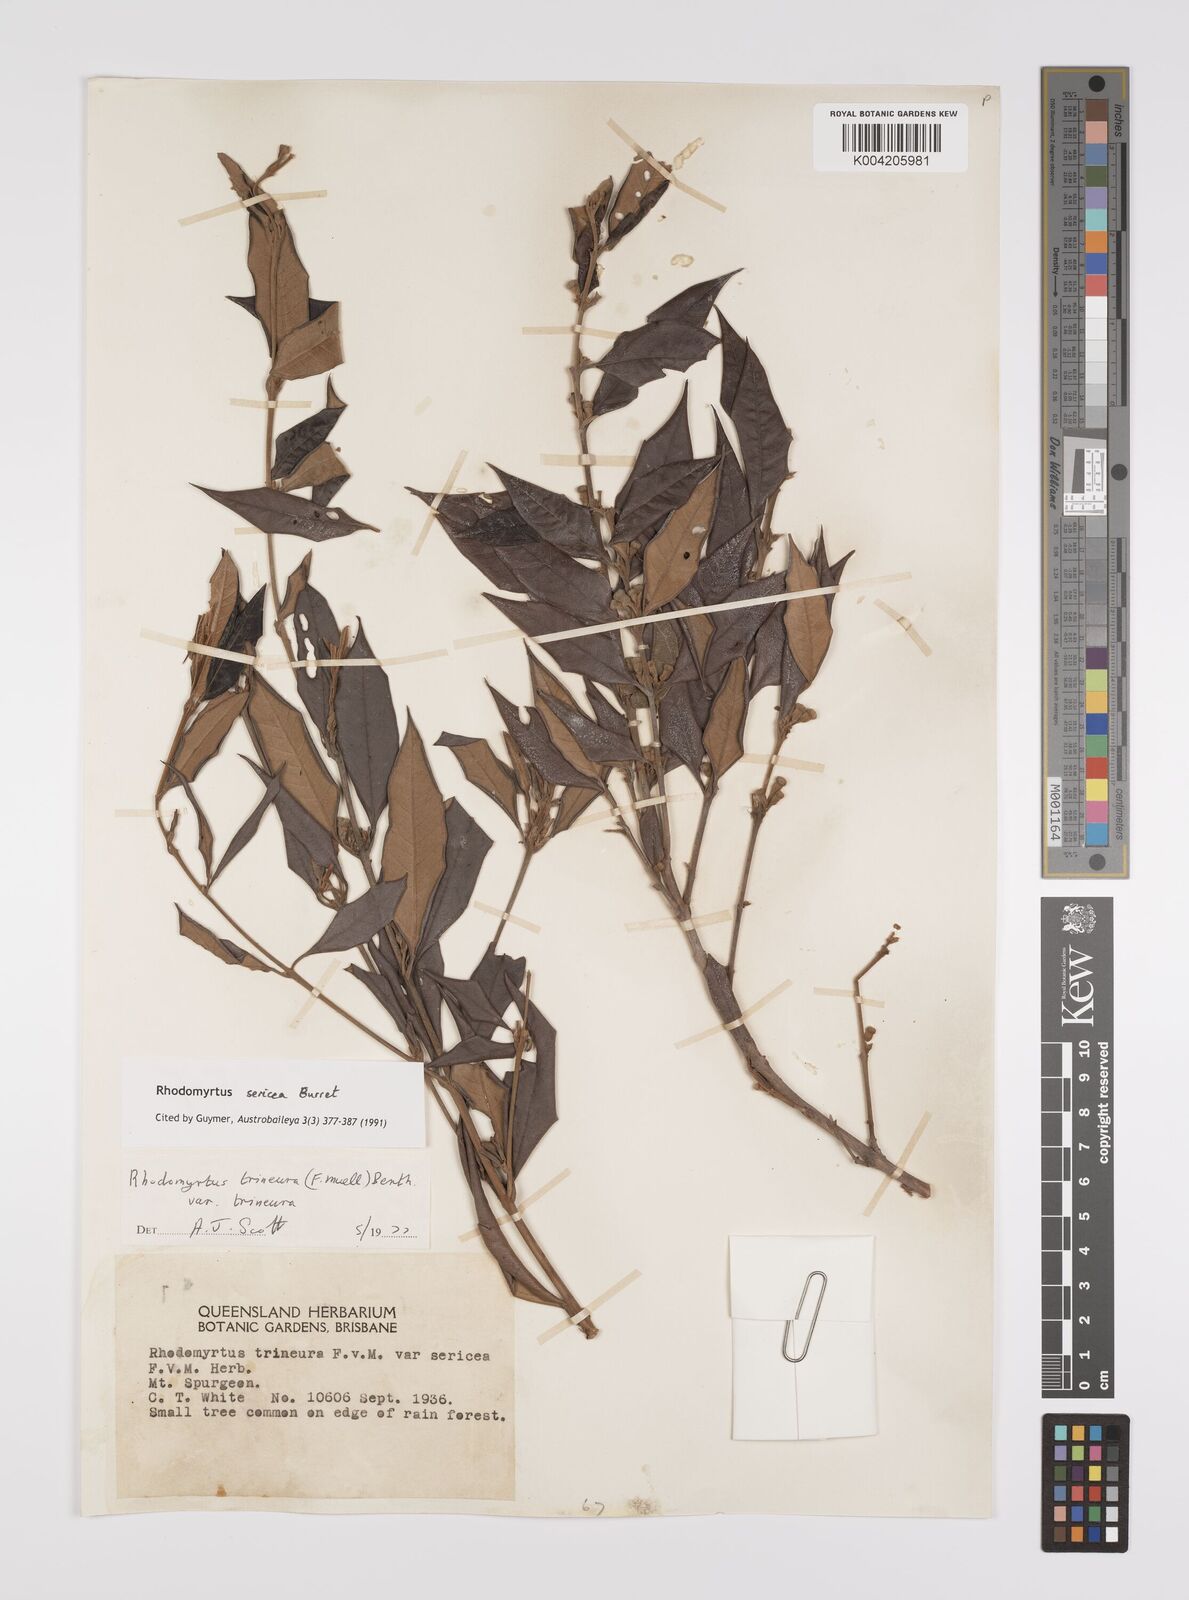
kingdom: Plantae
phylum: Tracheophyta
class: Magnoliopsida
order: Myrtales
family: Myrtaceae
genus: Rhodomyrtus
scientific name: Rhodomyrtus sericea
